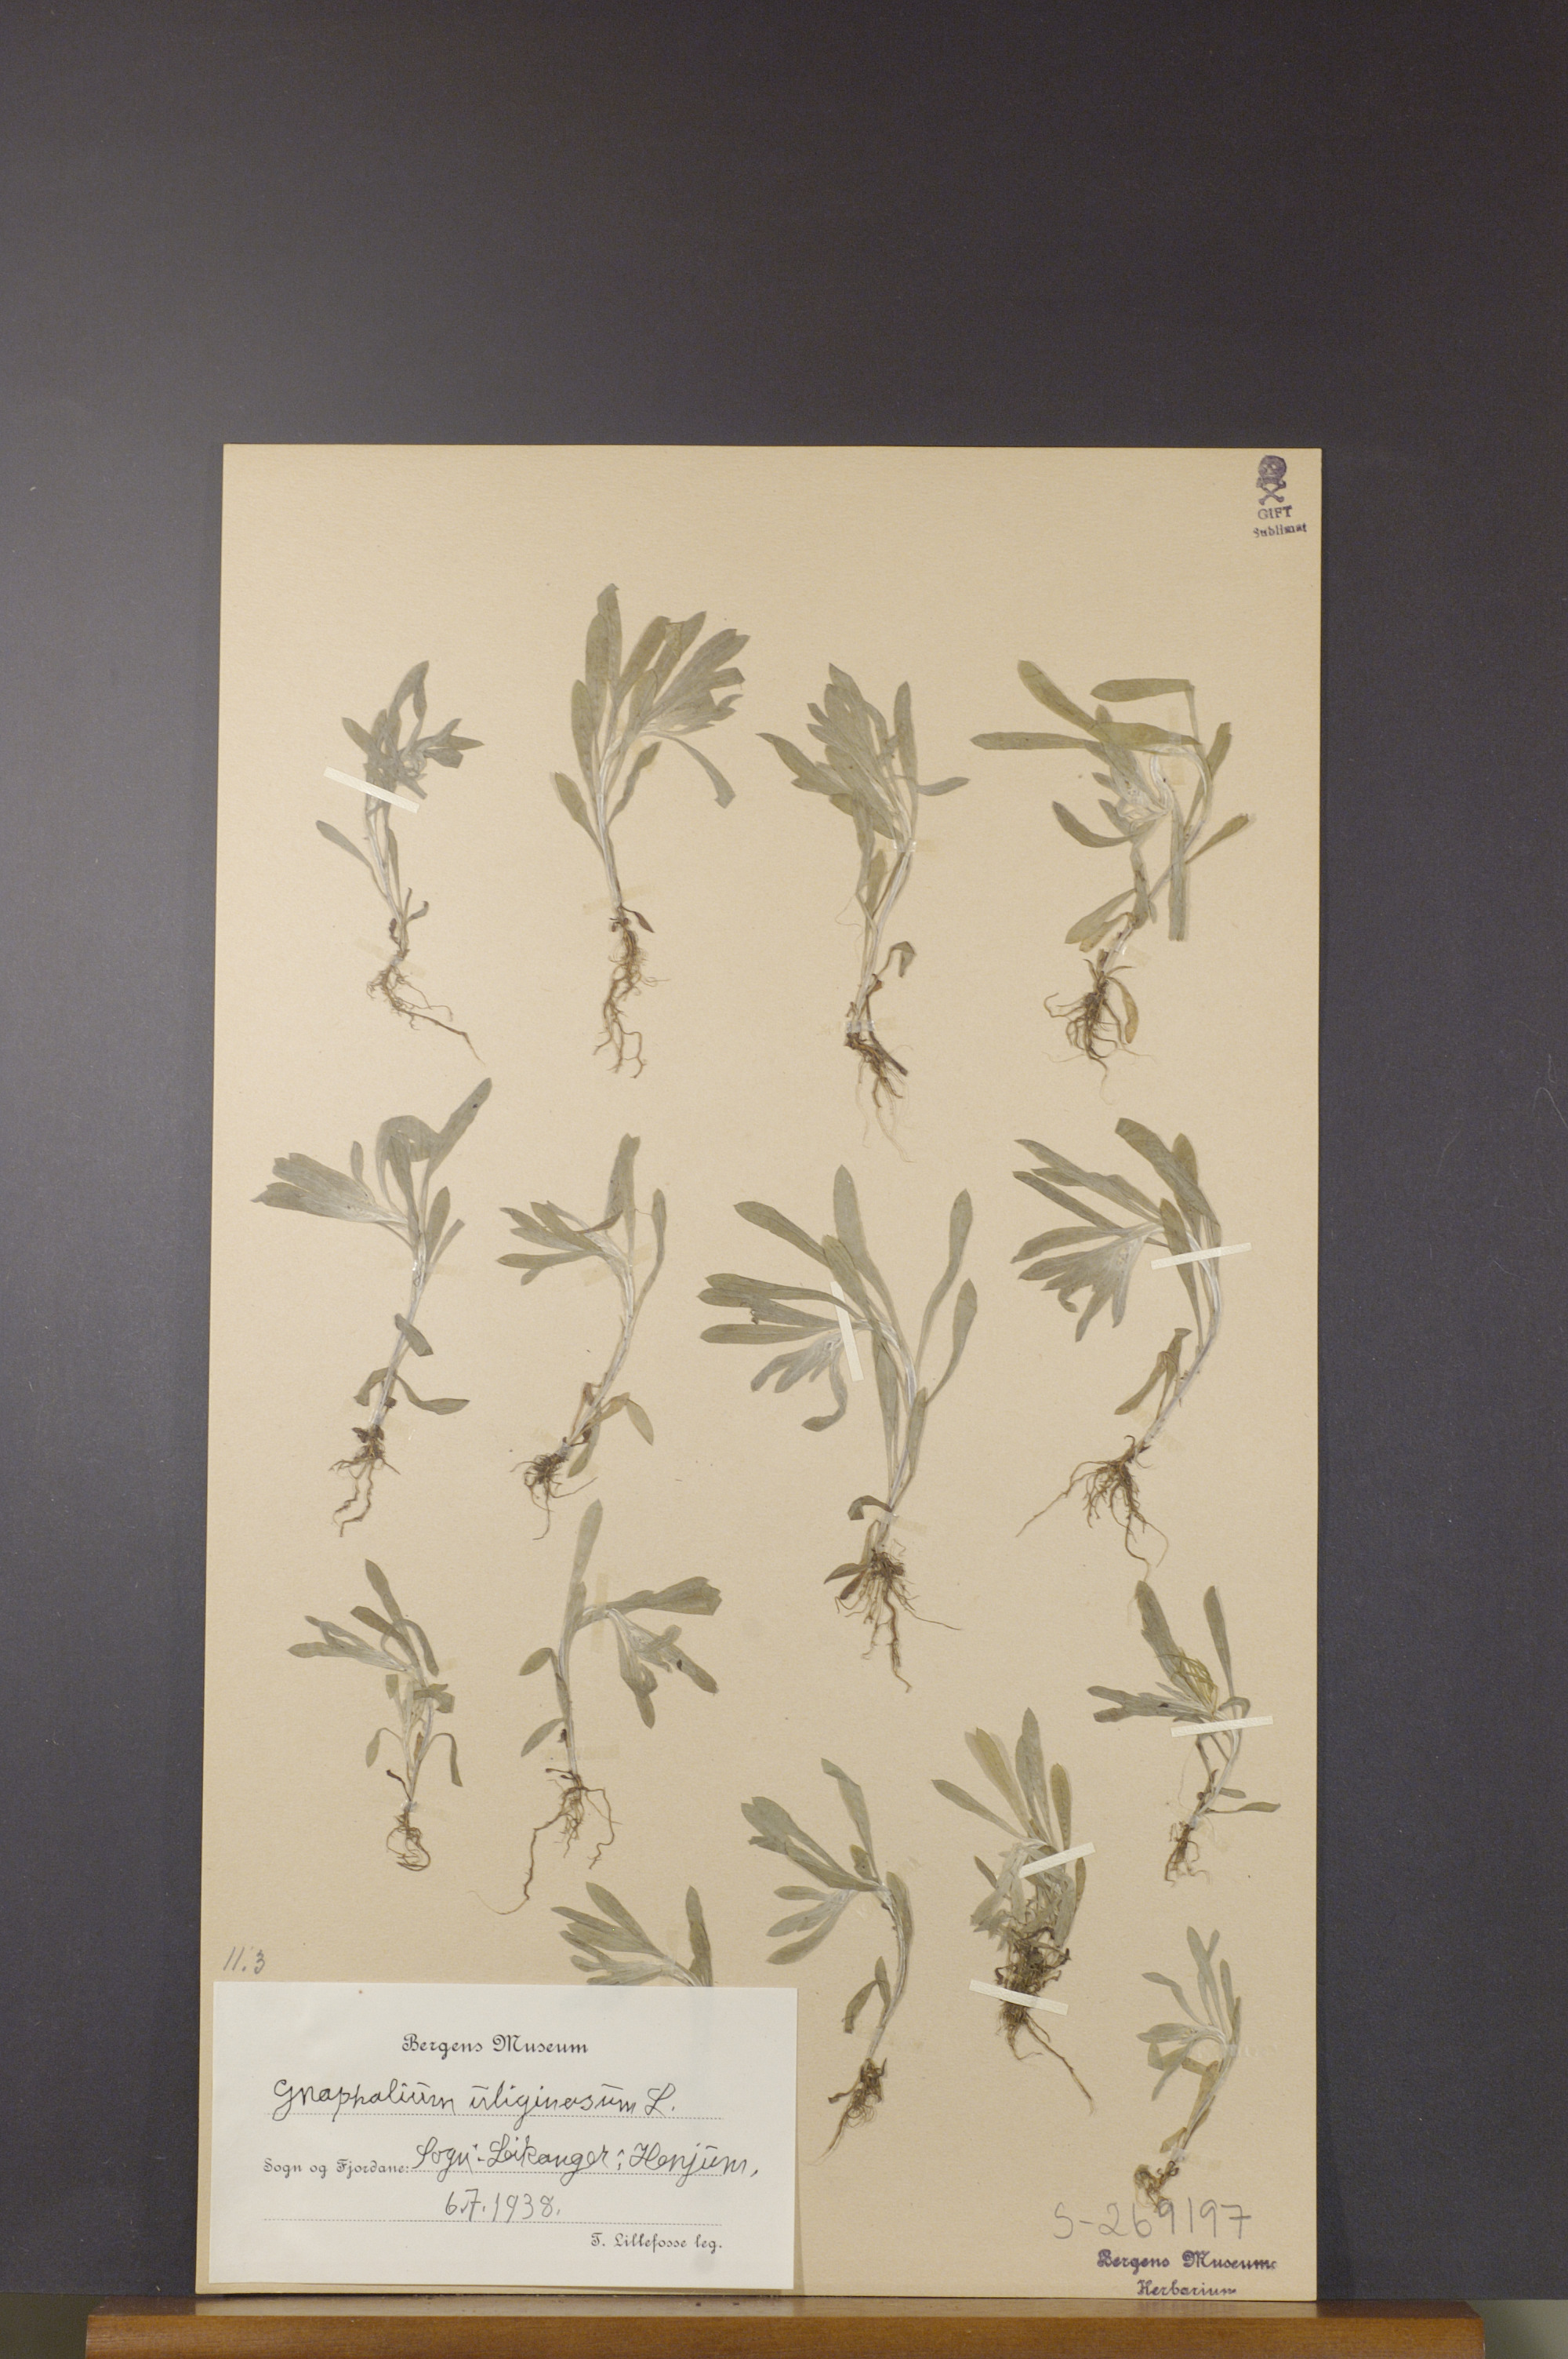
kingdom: Plantae
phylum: Tracheophyta
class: Magnoliopsida
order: Asterales
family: Asteraceae
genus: Gnaphalium
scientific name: Gnaphalium uliginosum
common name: Marsh cudweed
